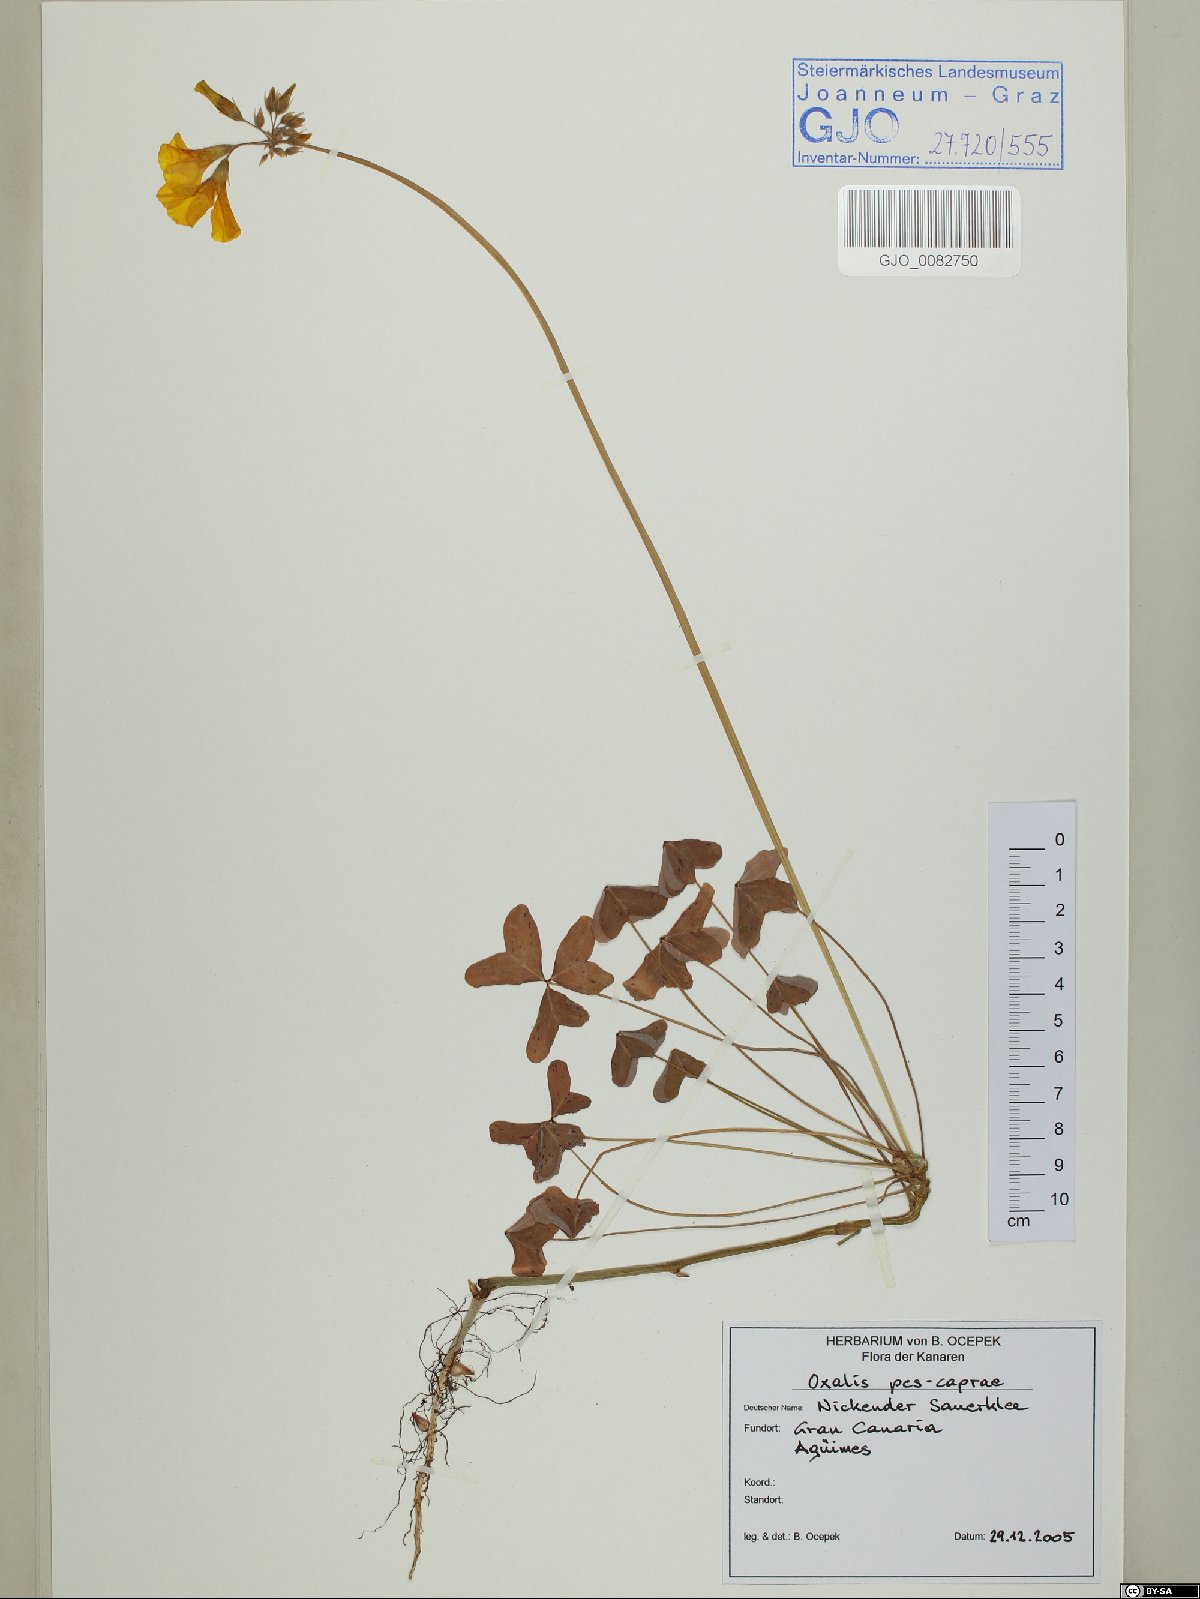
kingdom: Plantae
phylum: Tracheophyta
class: Magnoliopsida
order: Oxalidales
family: Oxalidaceae
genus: Oxalis
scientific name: Oxalis pes-caprae
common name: Bermuda-buttercup
